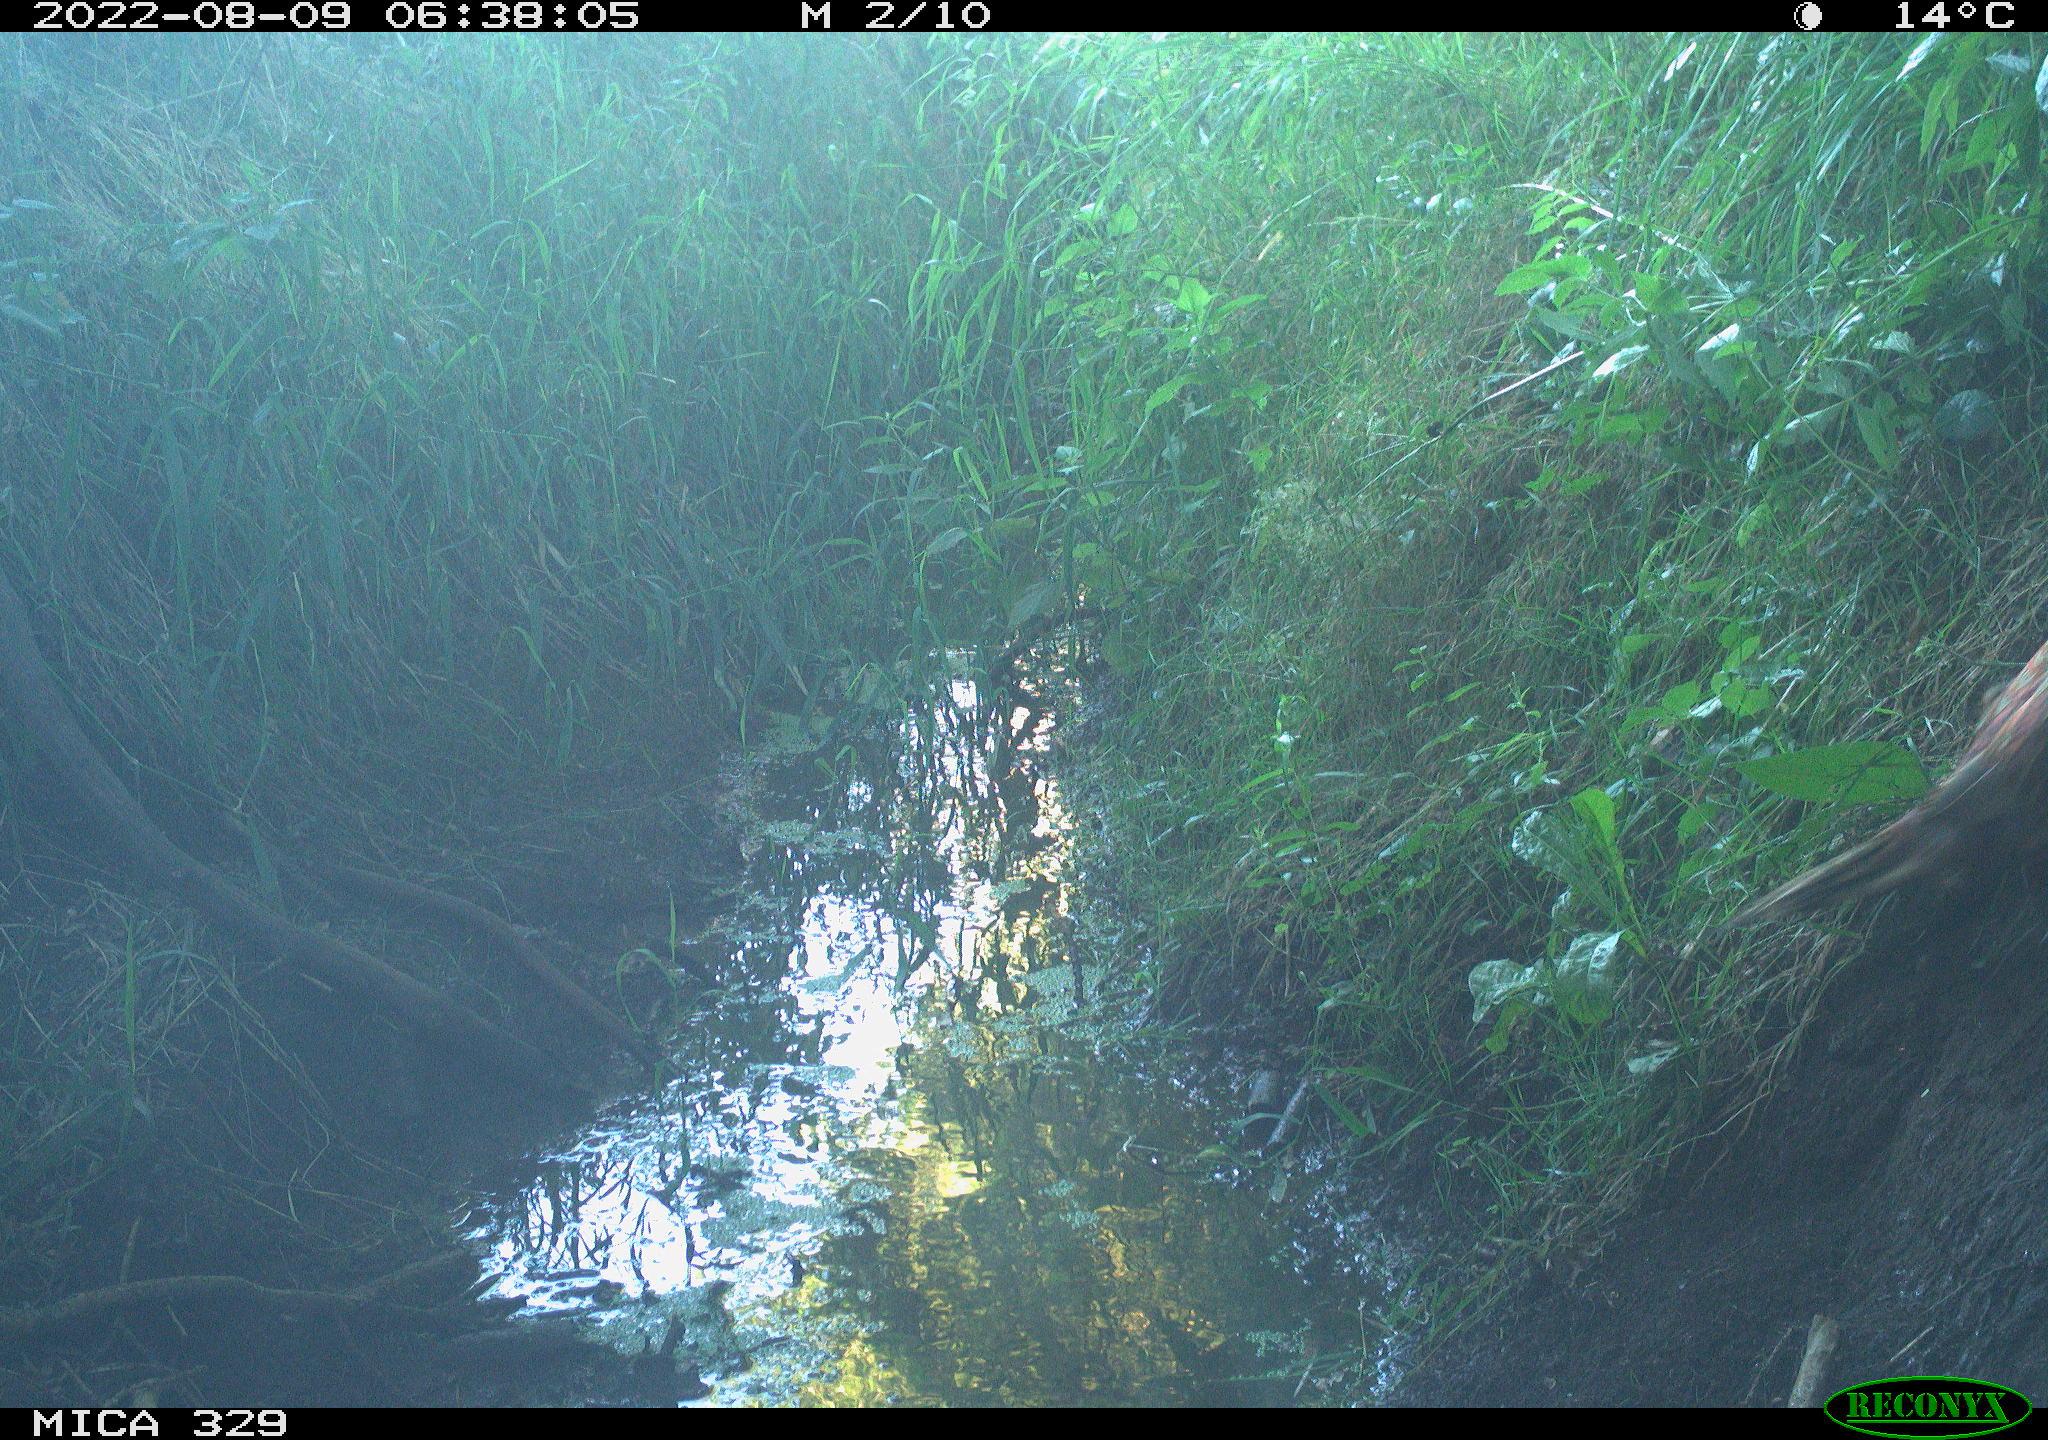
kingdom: Animalia
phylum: Chordata
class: Aves
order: Galliformes
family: Phasianidae
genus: Phasianus
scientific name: Phasianus colchicus
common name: Common pheasant
